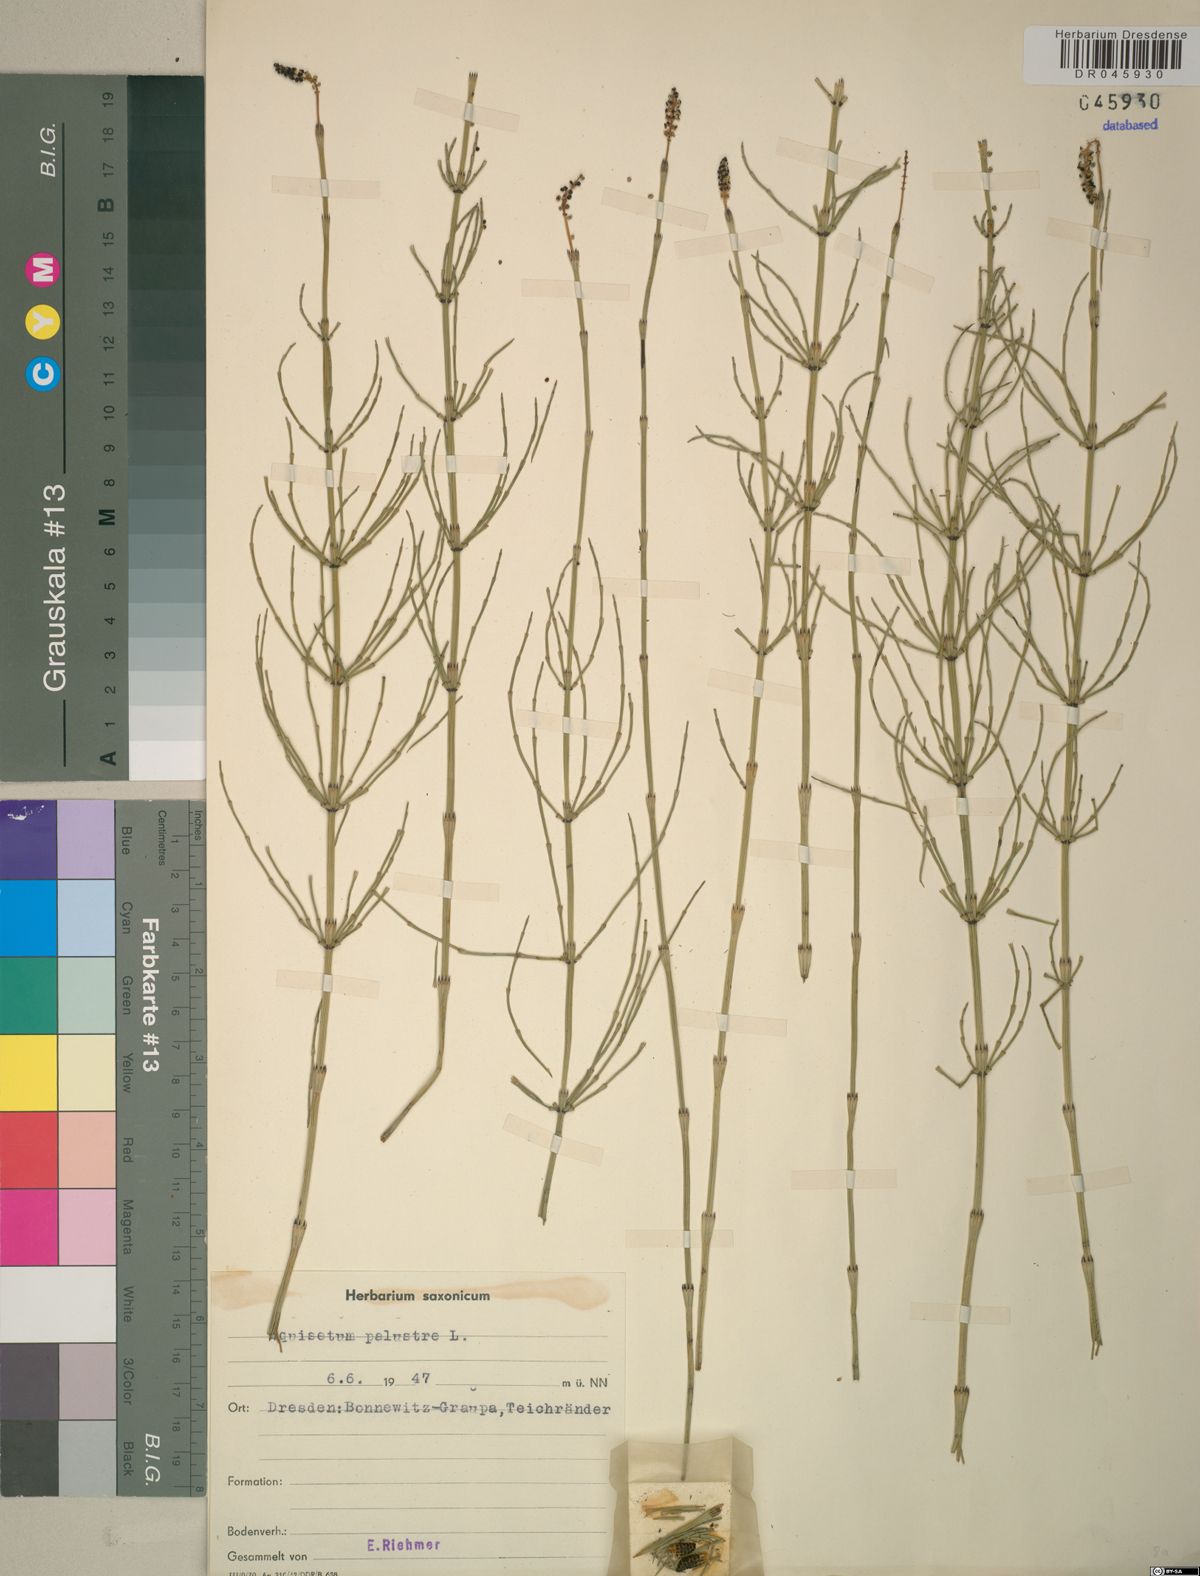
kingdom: Plantae
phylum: Tracheophyta
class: Polypodiopsida
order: Equisetales
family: Equisetaceae
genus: Equisetum
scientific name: Equisetum palustre
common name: Marsh horsetail
